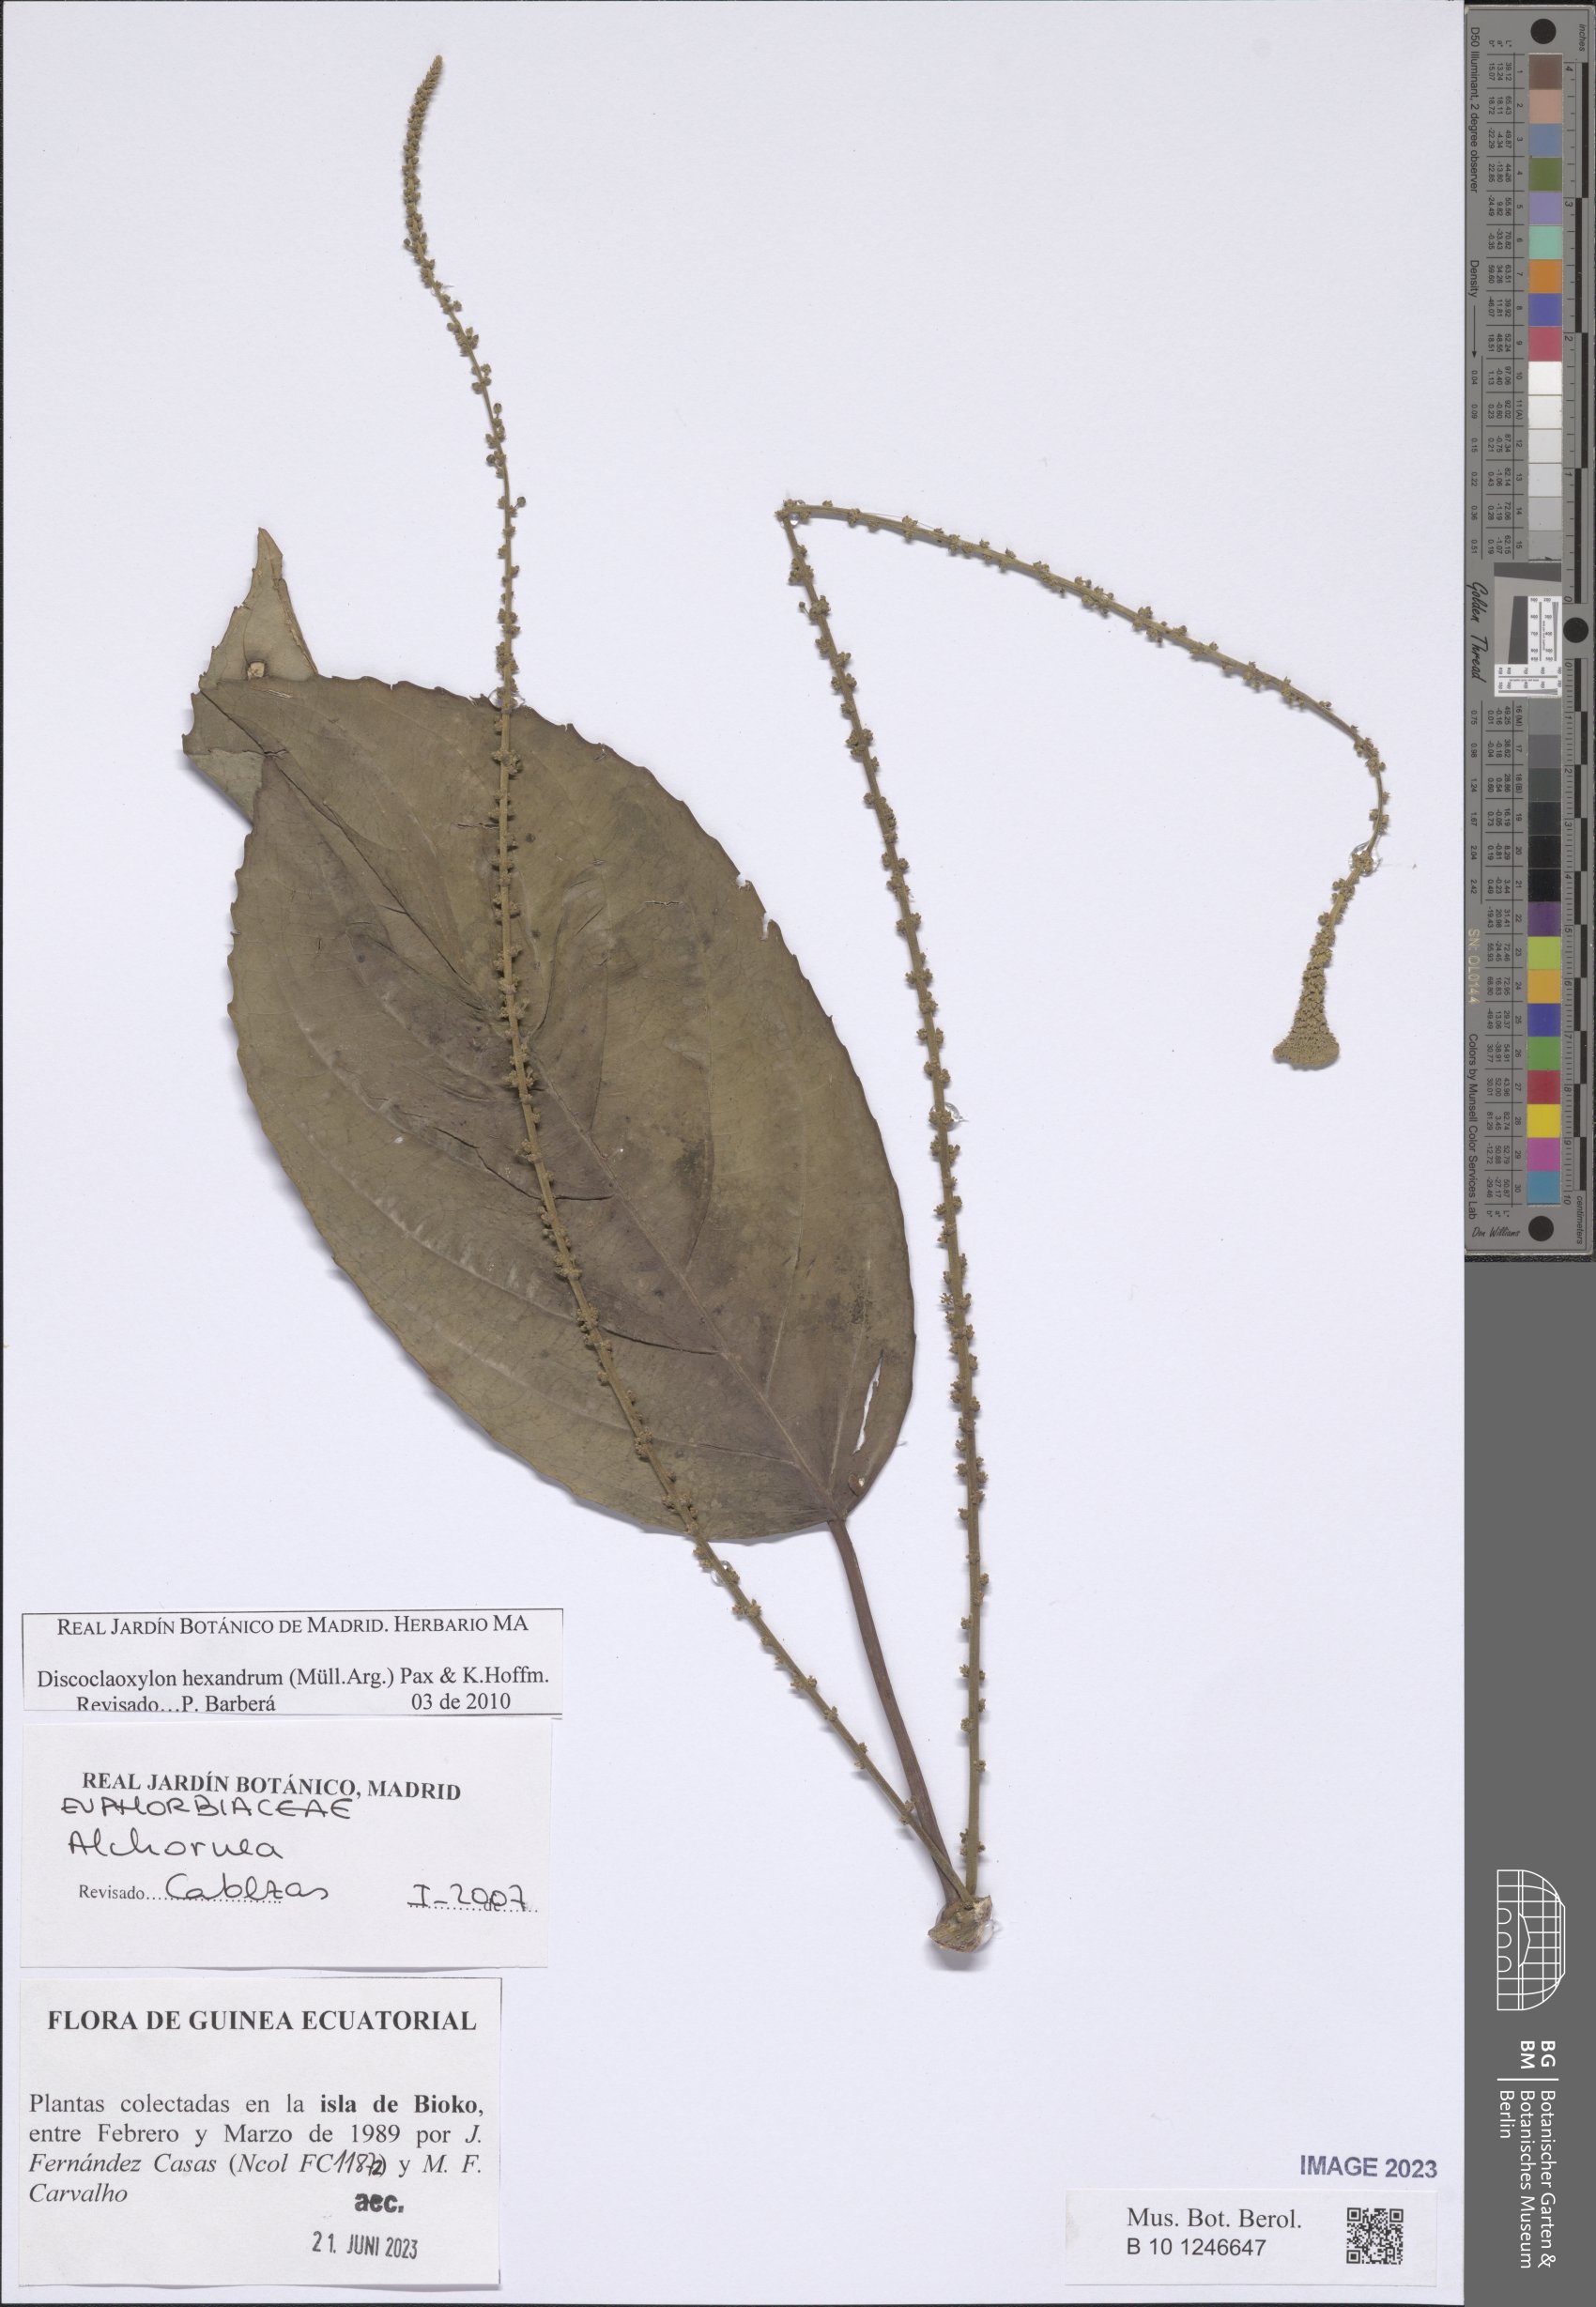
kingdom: Plantae
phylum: Tracheophyta
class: Magnoliopsida
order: Malpighiales
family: Euphorbiaceae
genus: Discoclaoxylon
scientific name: Discoclaoxylon hexandrum
